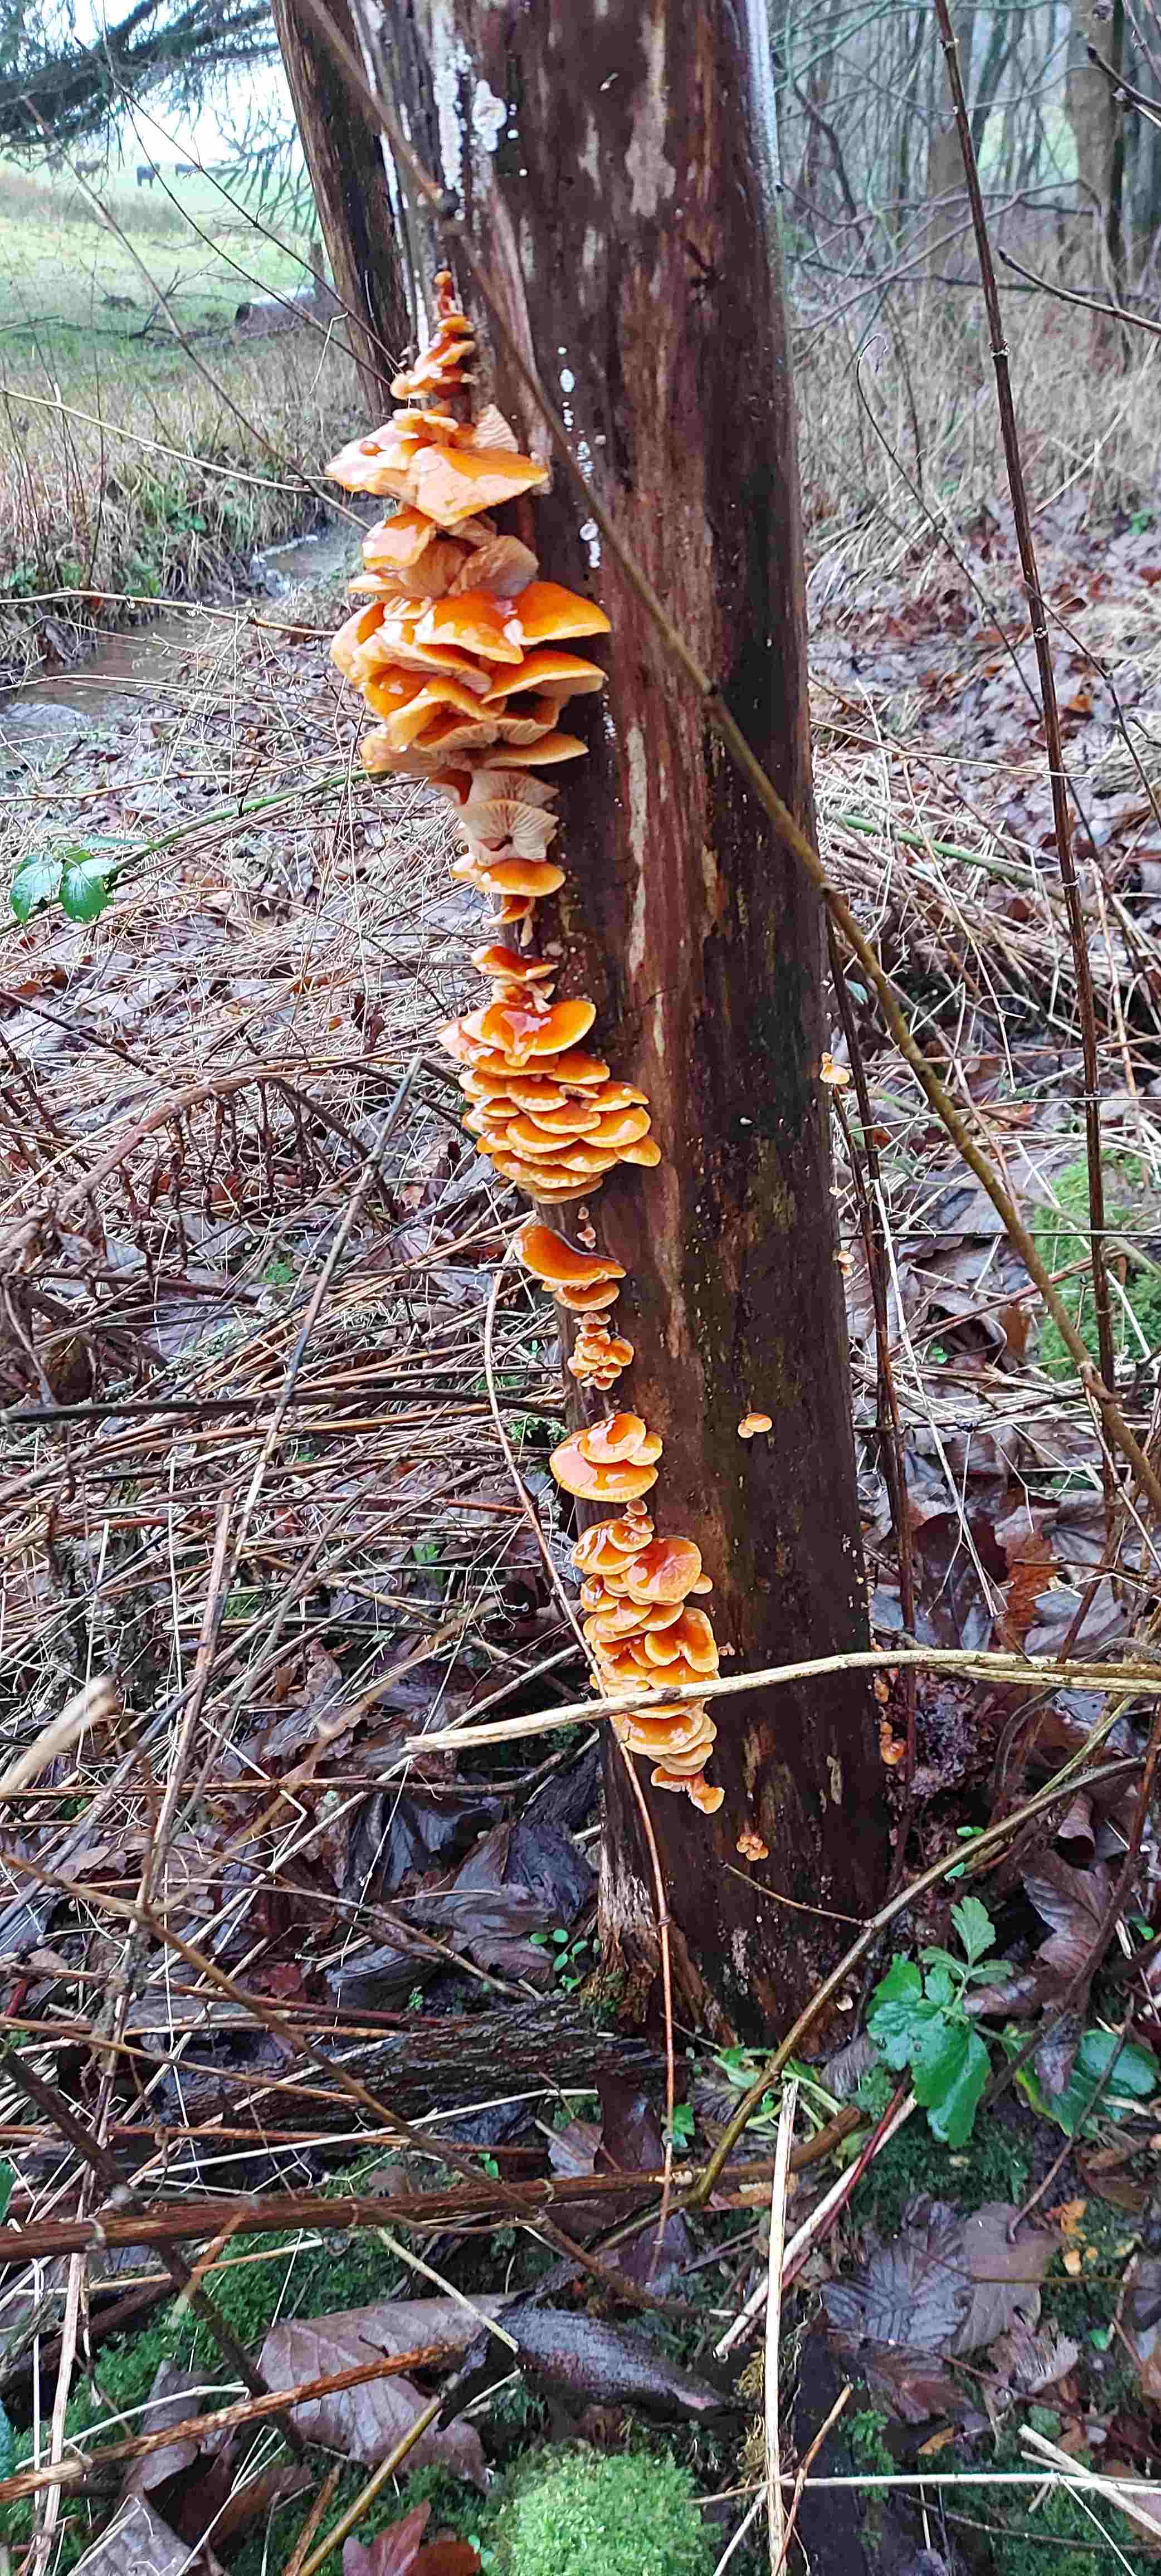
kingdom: Fungi
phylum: Basidiomycota
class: Agaricomycetes
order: Agaricales
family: Physalacriaceae
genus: Flammulina
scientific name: Flammulina
